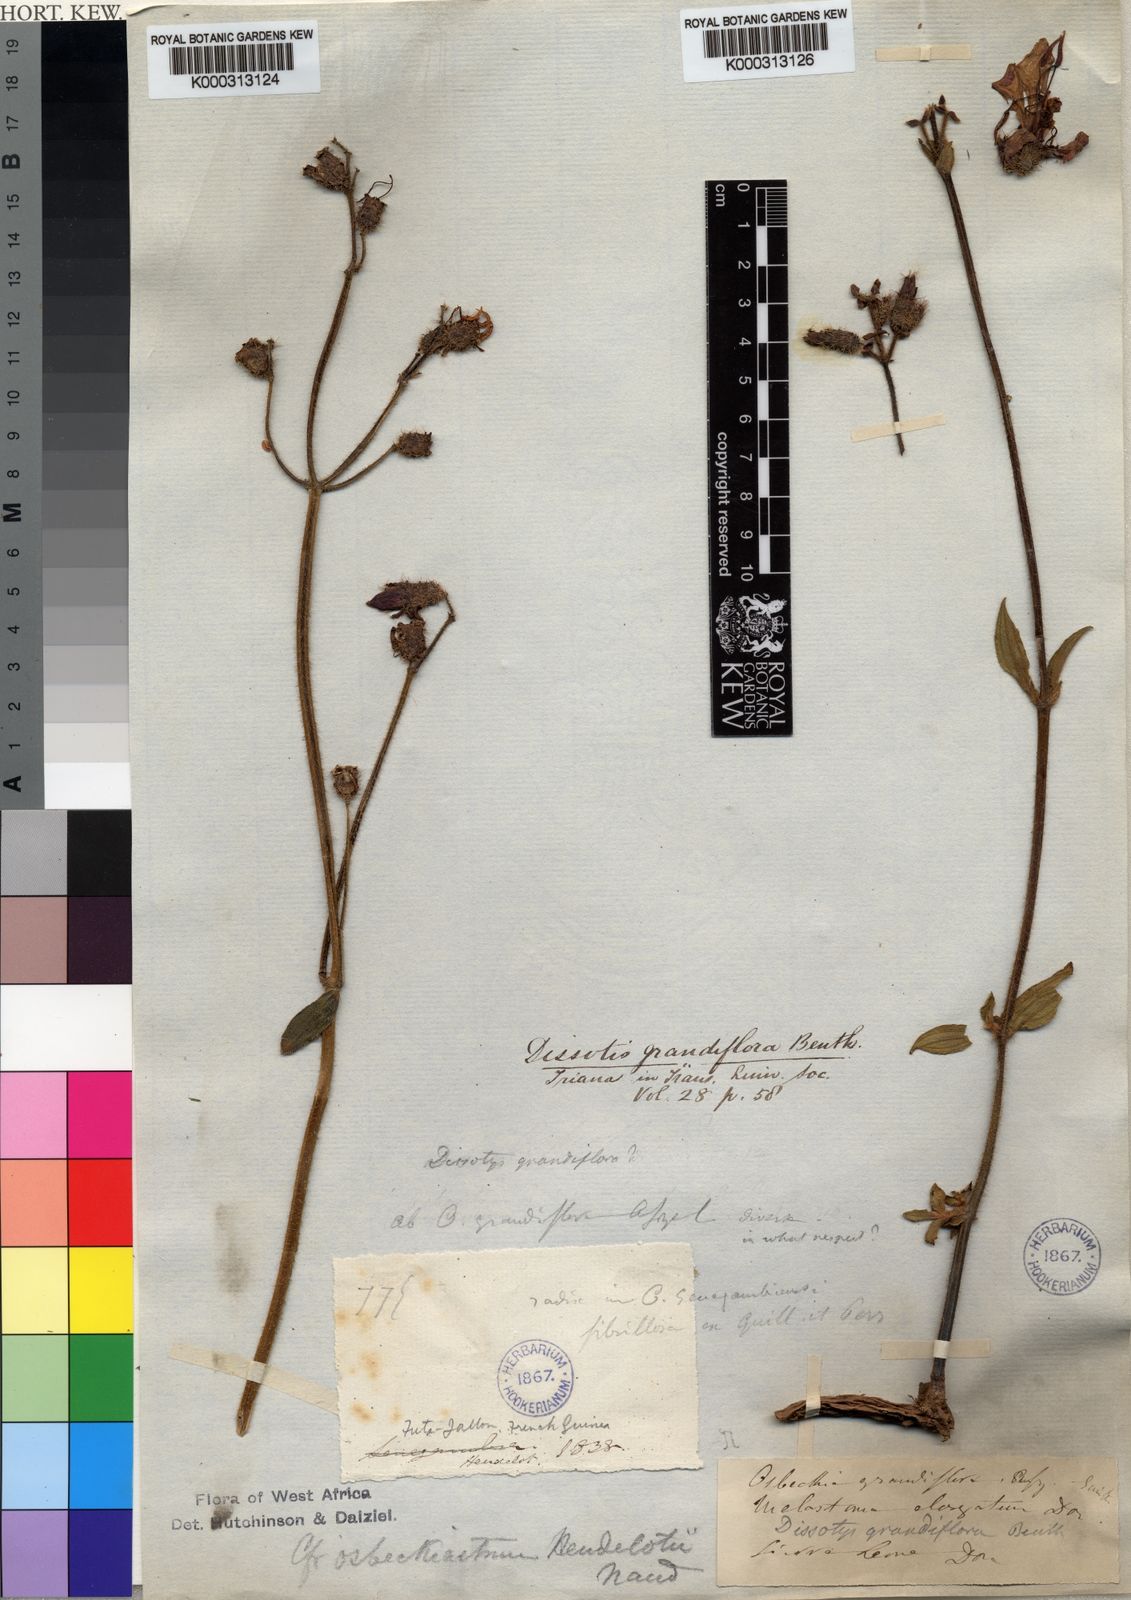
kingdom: Plantae
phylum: Tracheophyta
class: Magnoliopsida
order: Myrtales
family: Melastomataceae
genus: Dissotis
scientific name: Dissotis grandiflora
